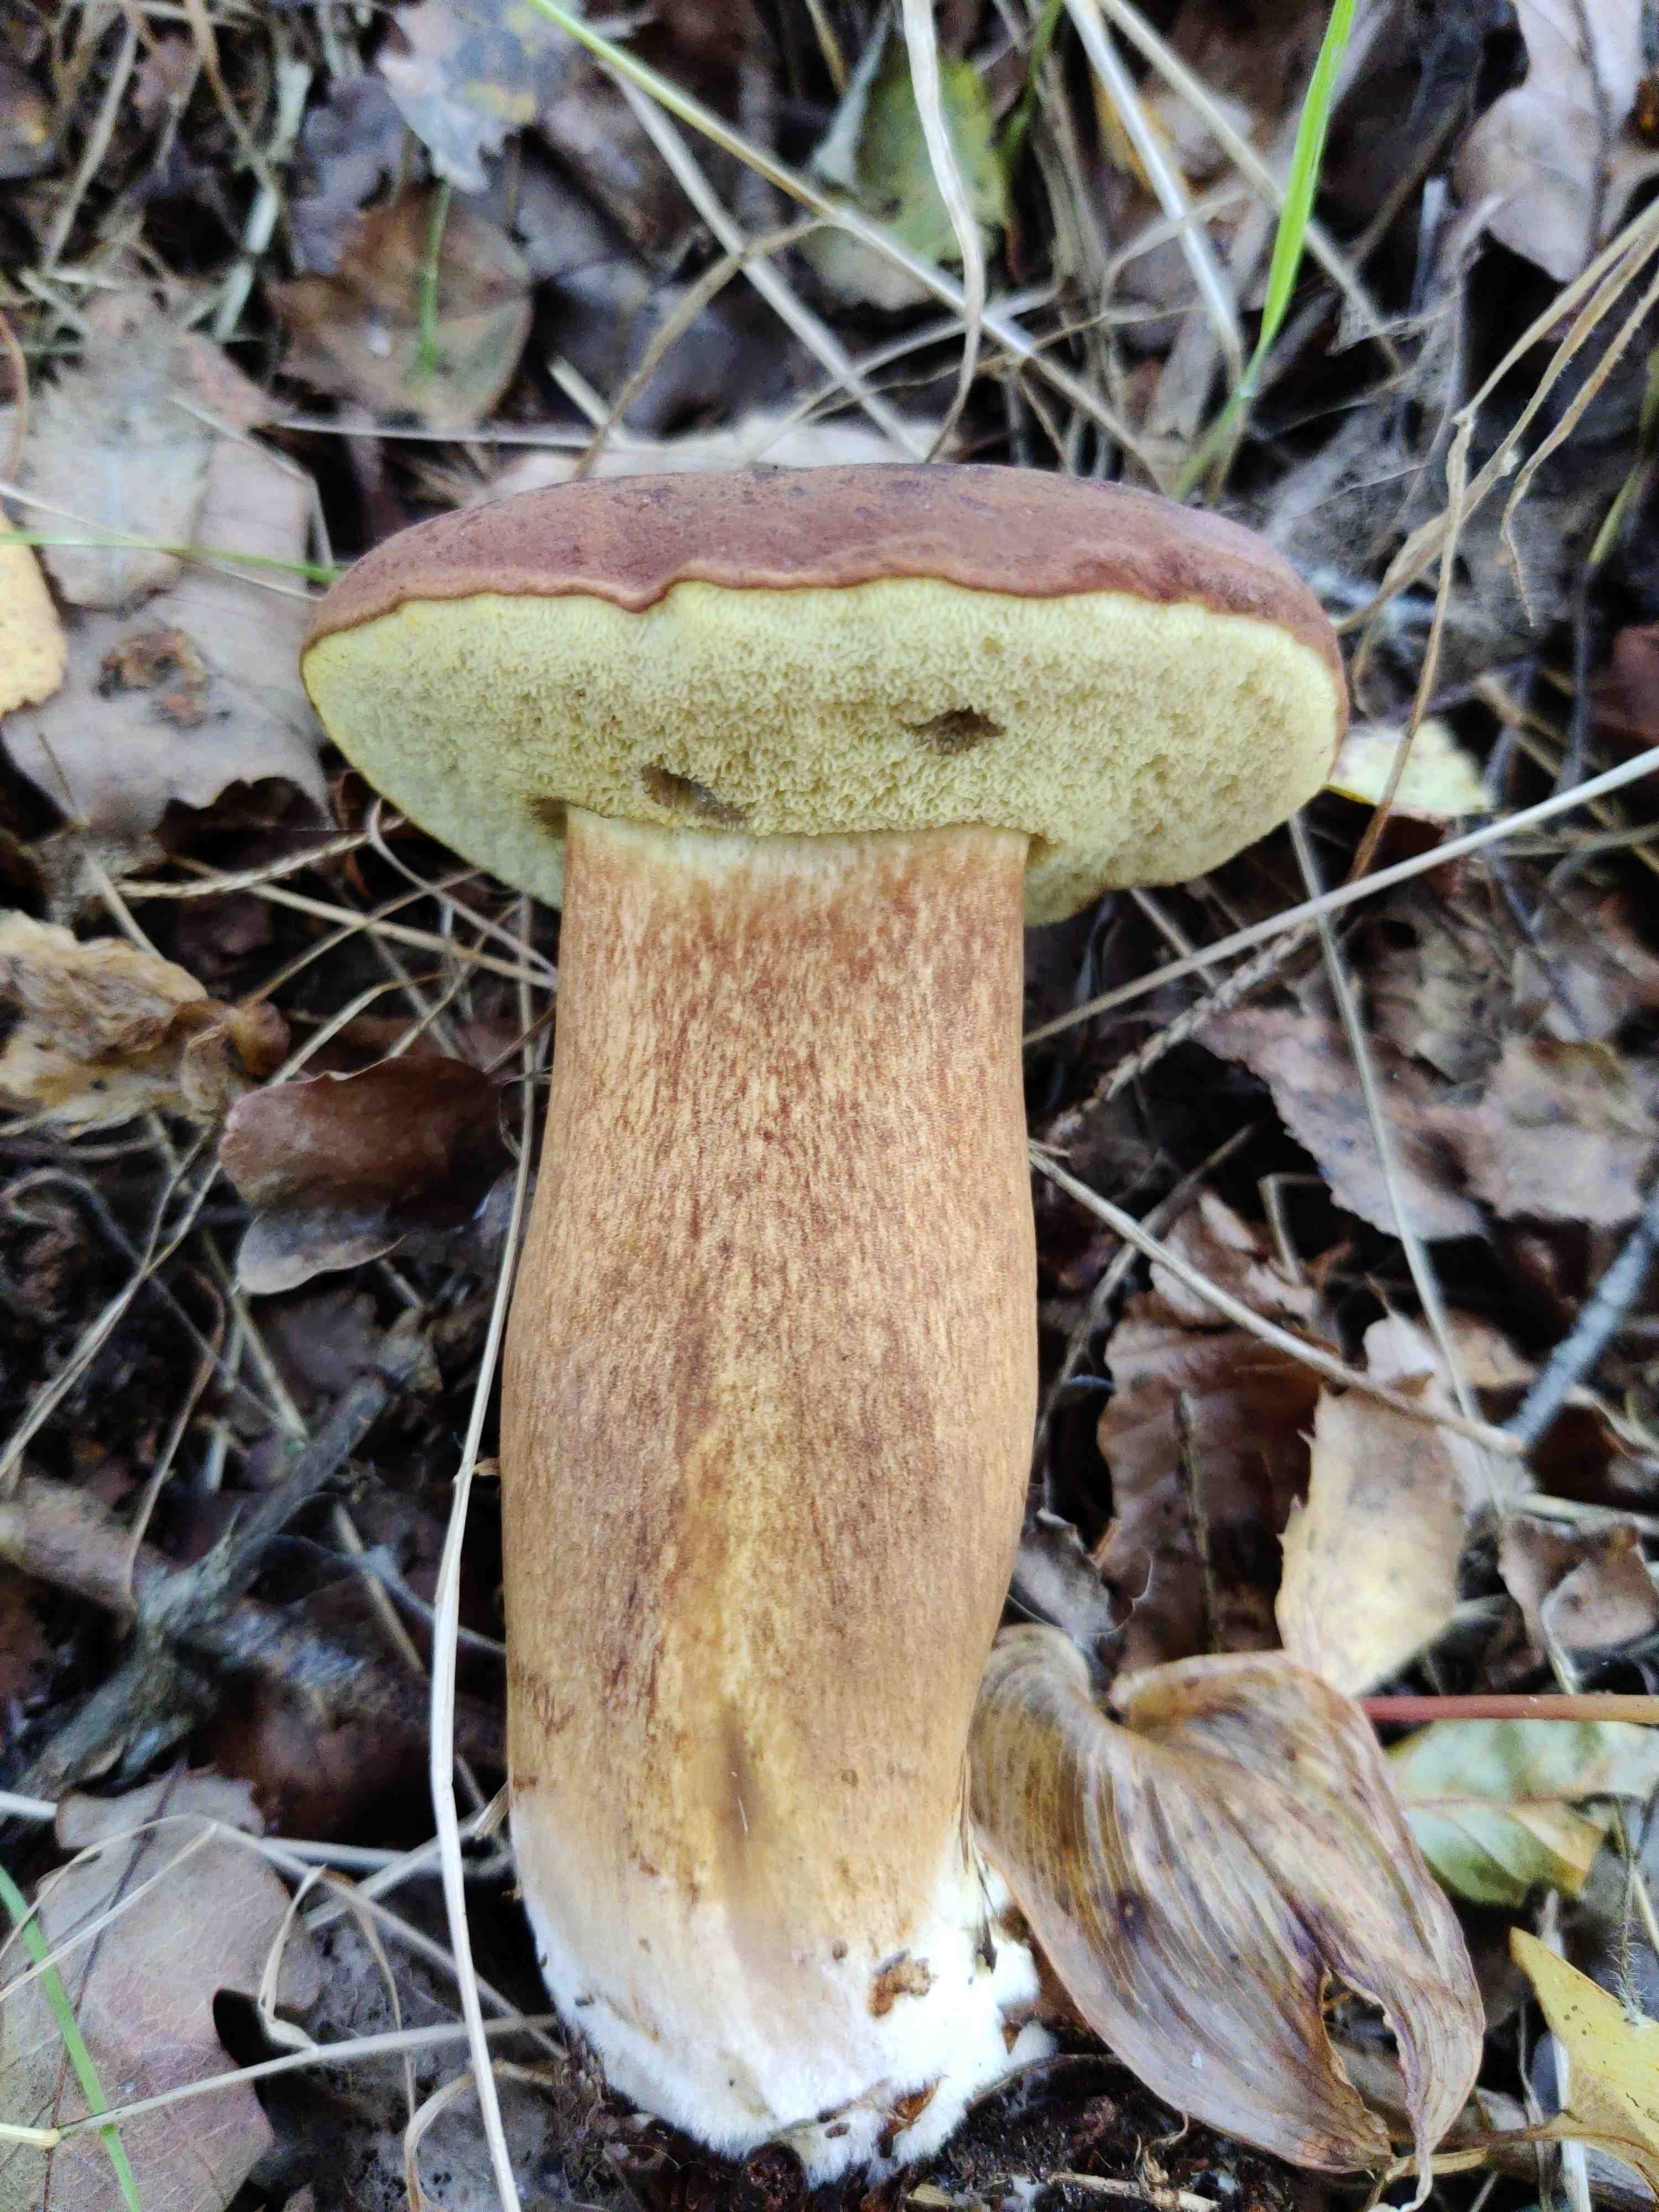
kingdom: Fungi
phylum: Basidiomycota
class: Agaricomycetes
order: Boletales
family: Boletaceae
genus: Imleria
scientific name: Imleria badia
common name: brunstokket rørhat
